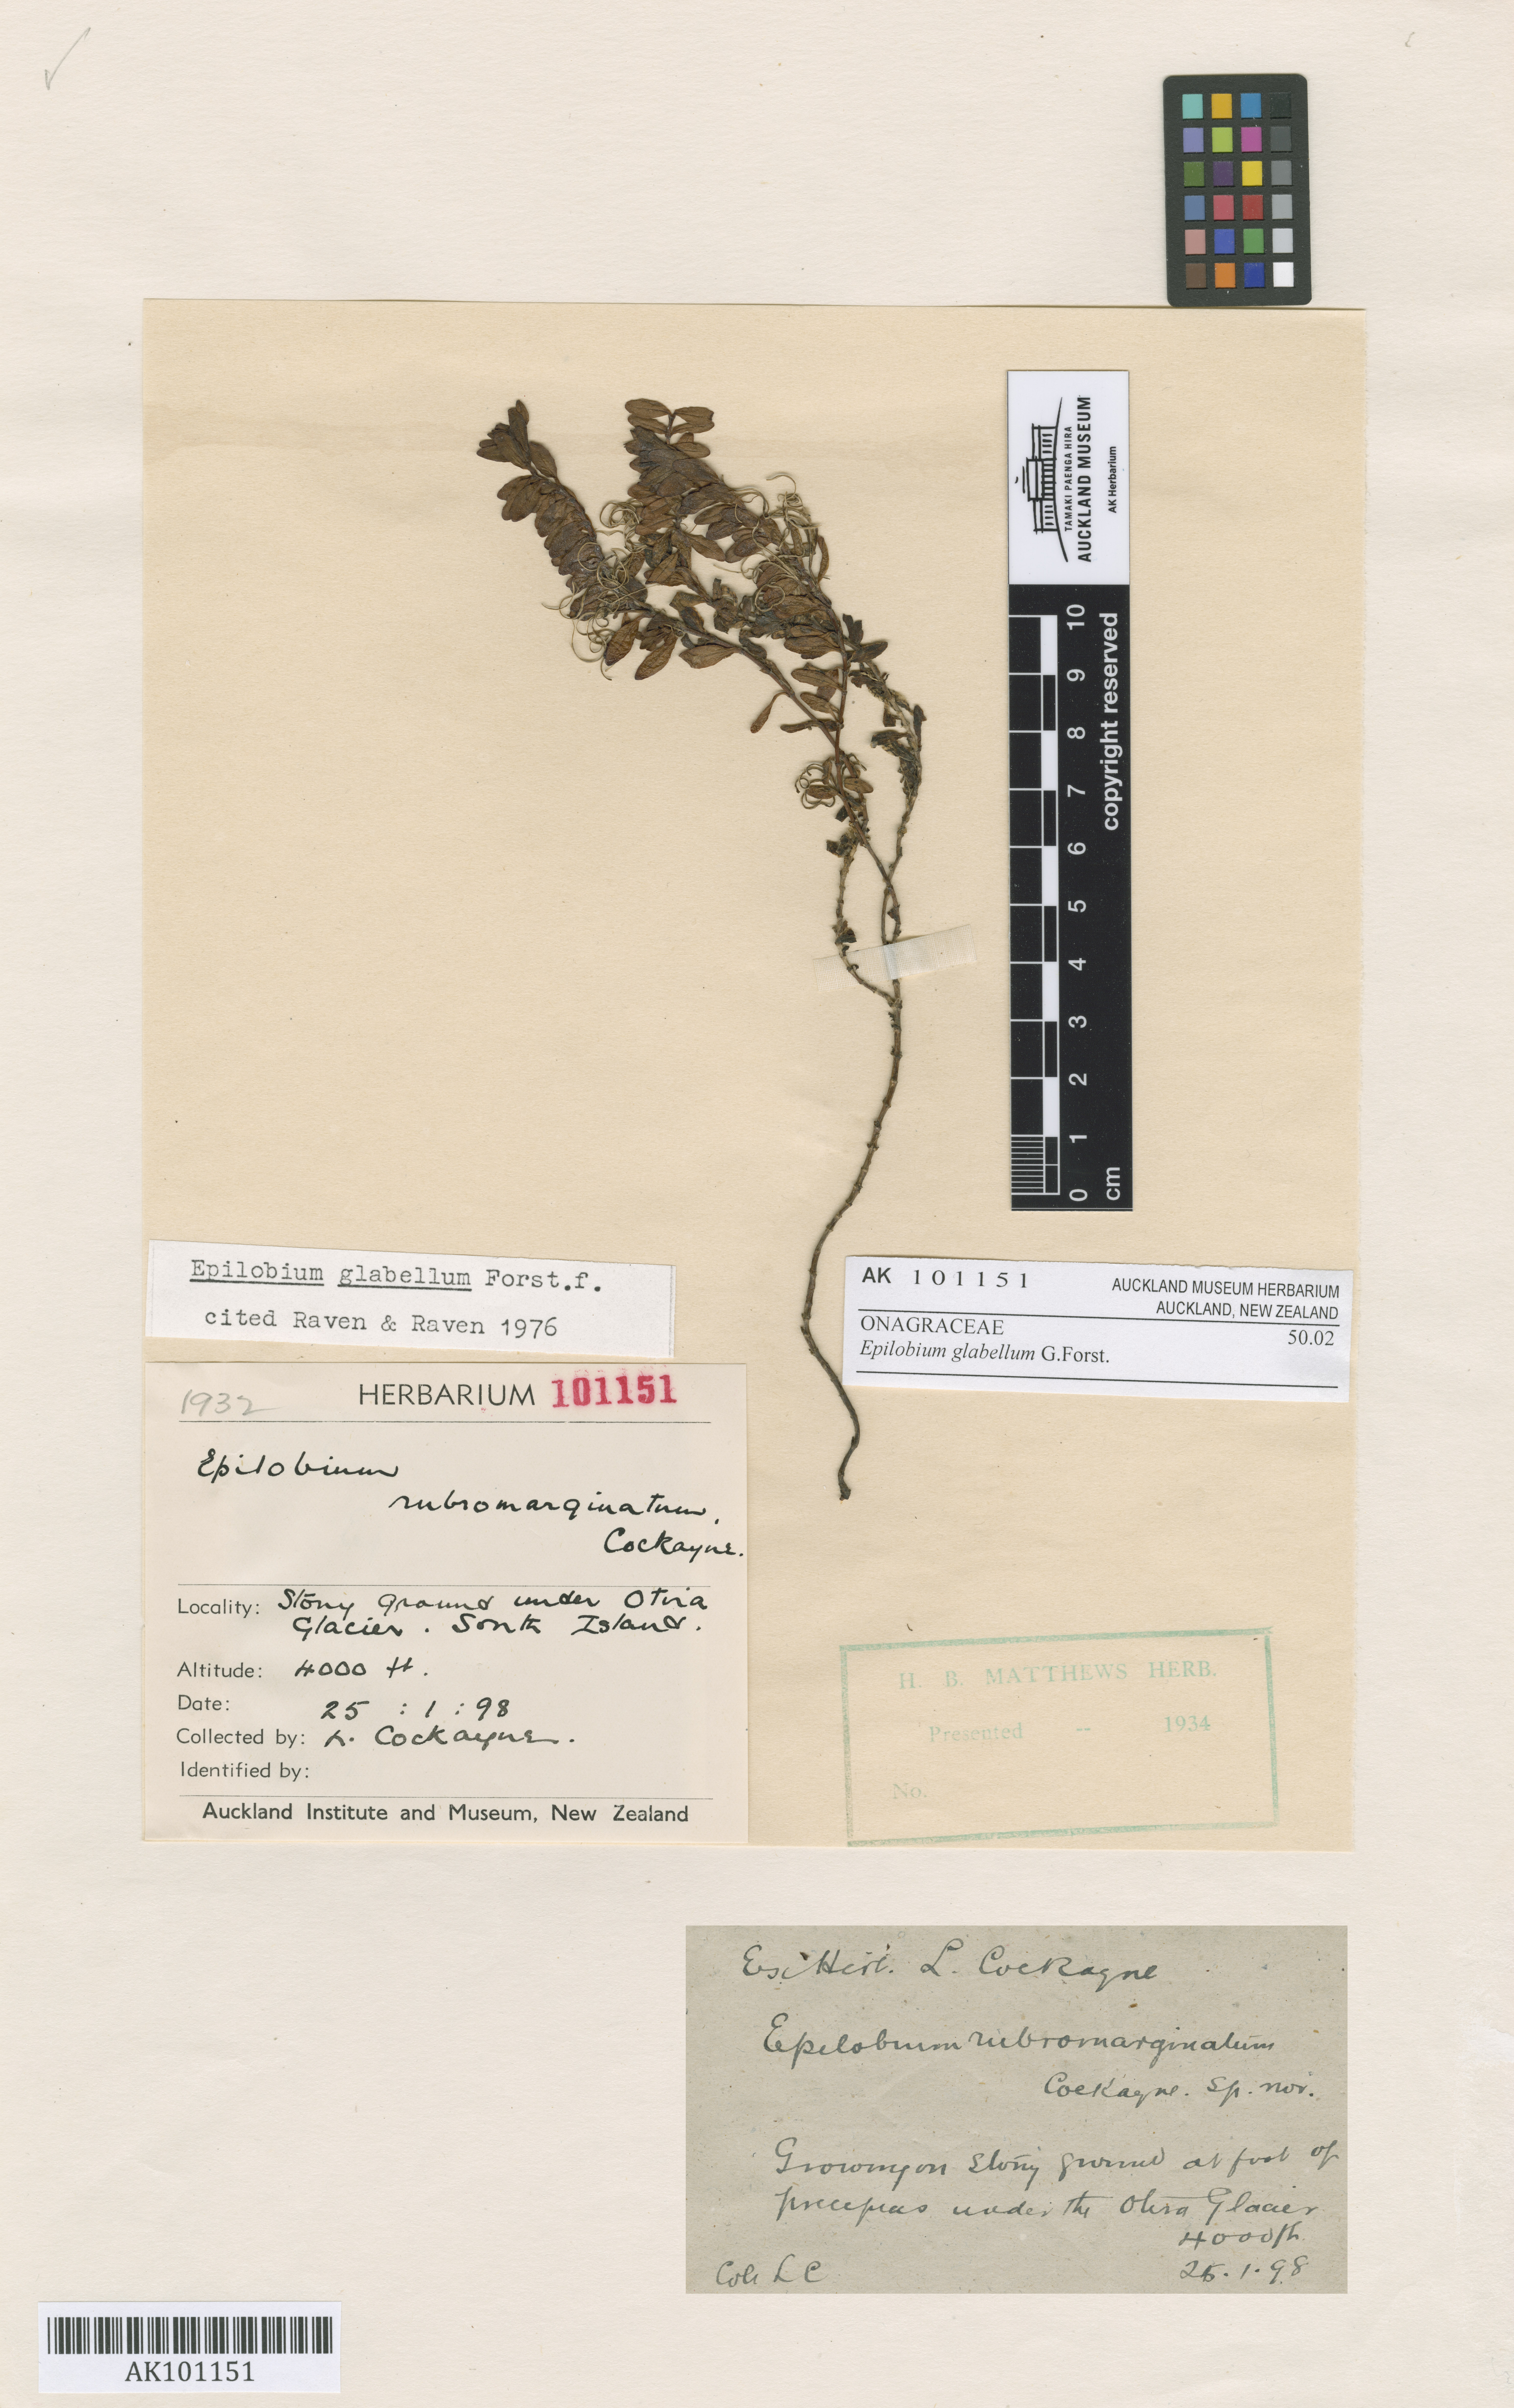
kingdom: Plantae
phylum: Tracheophyta
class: Magnoliopsida
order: Myrtales
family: Onagraceae
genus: Epilobium
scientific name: Epilobium glabellum
